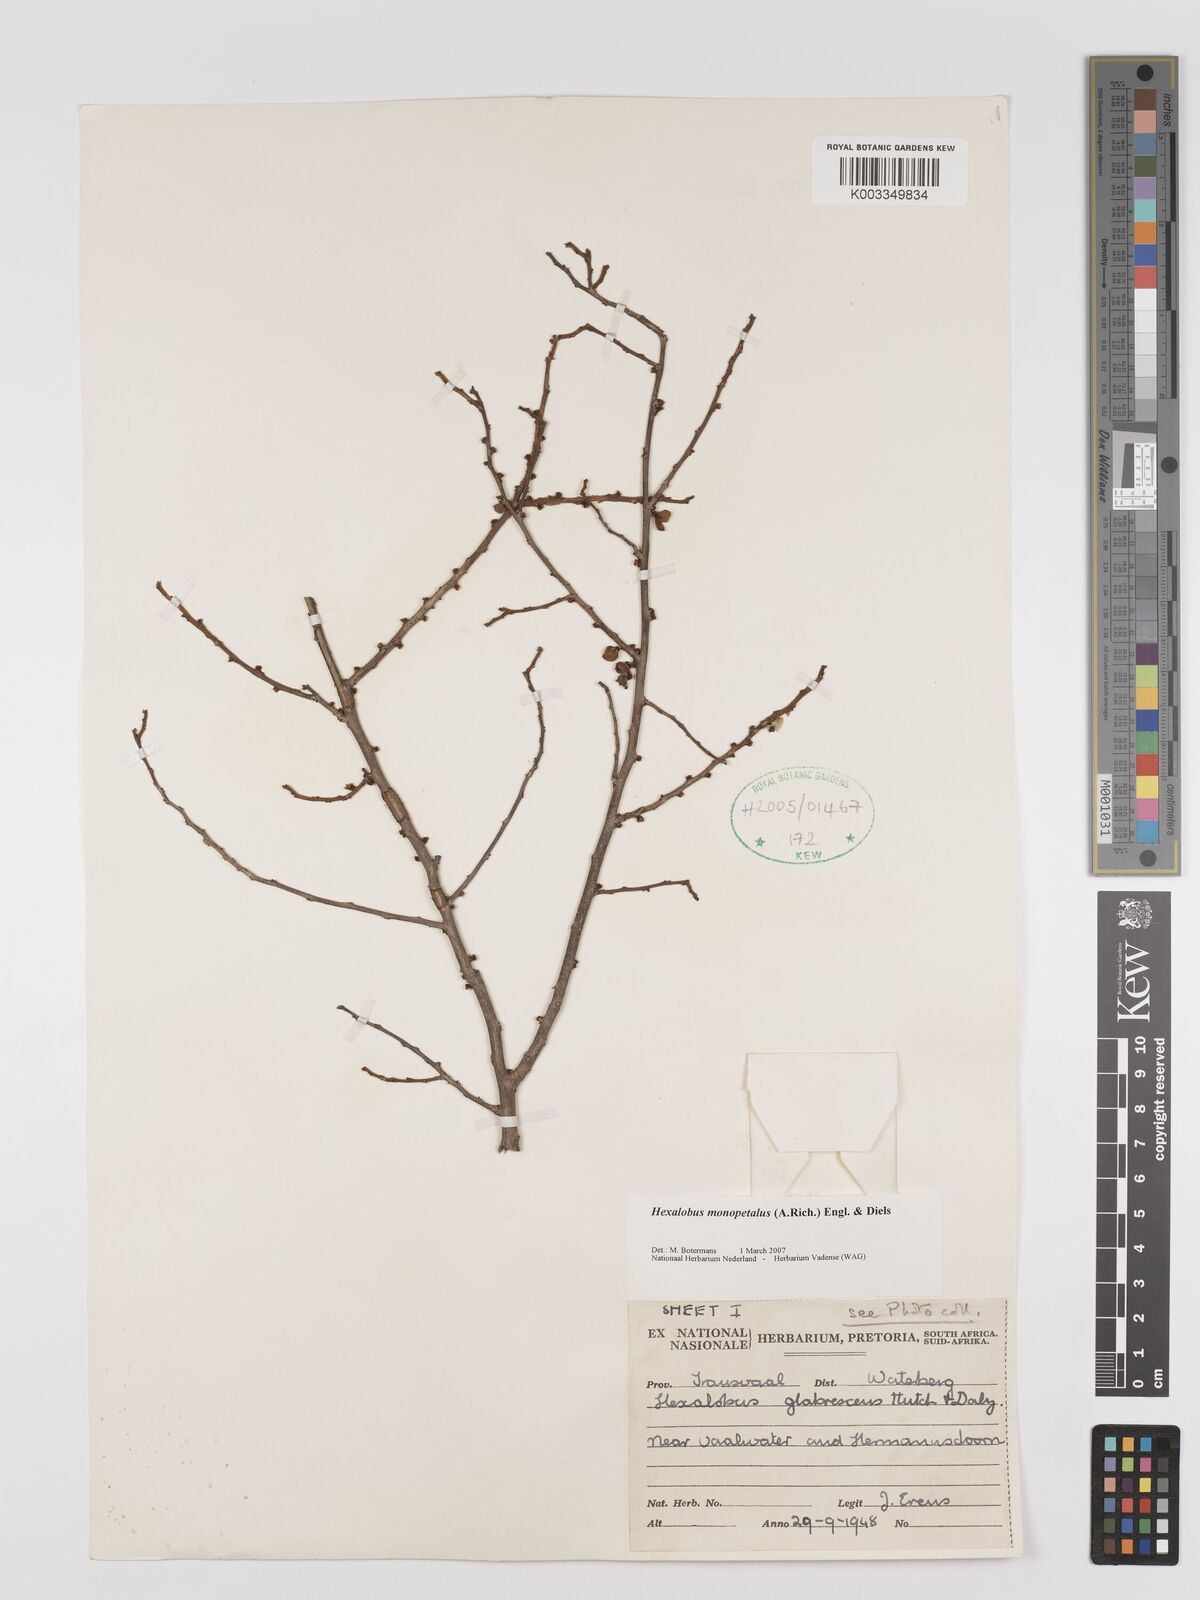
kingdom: Plantae
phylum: Tracheophyta
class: Magnoliopsida
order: Magnoliales
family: Annonaceae
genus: Hexalobus
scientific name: Hexalobus monopetalus
